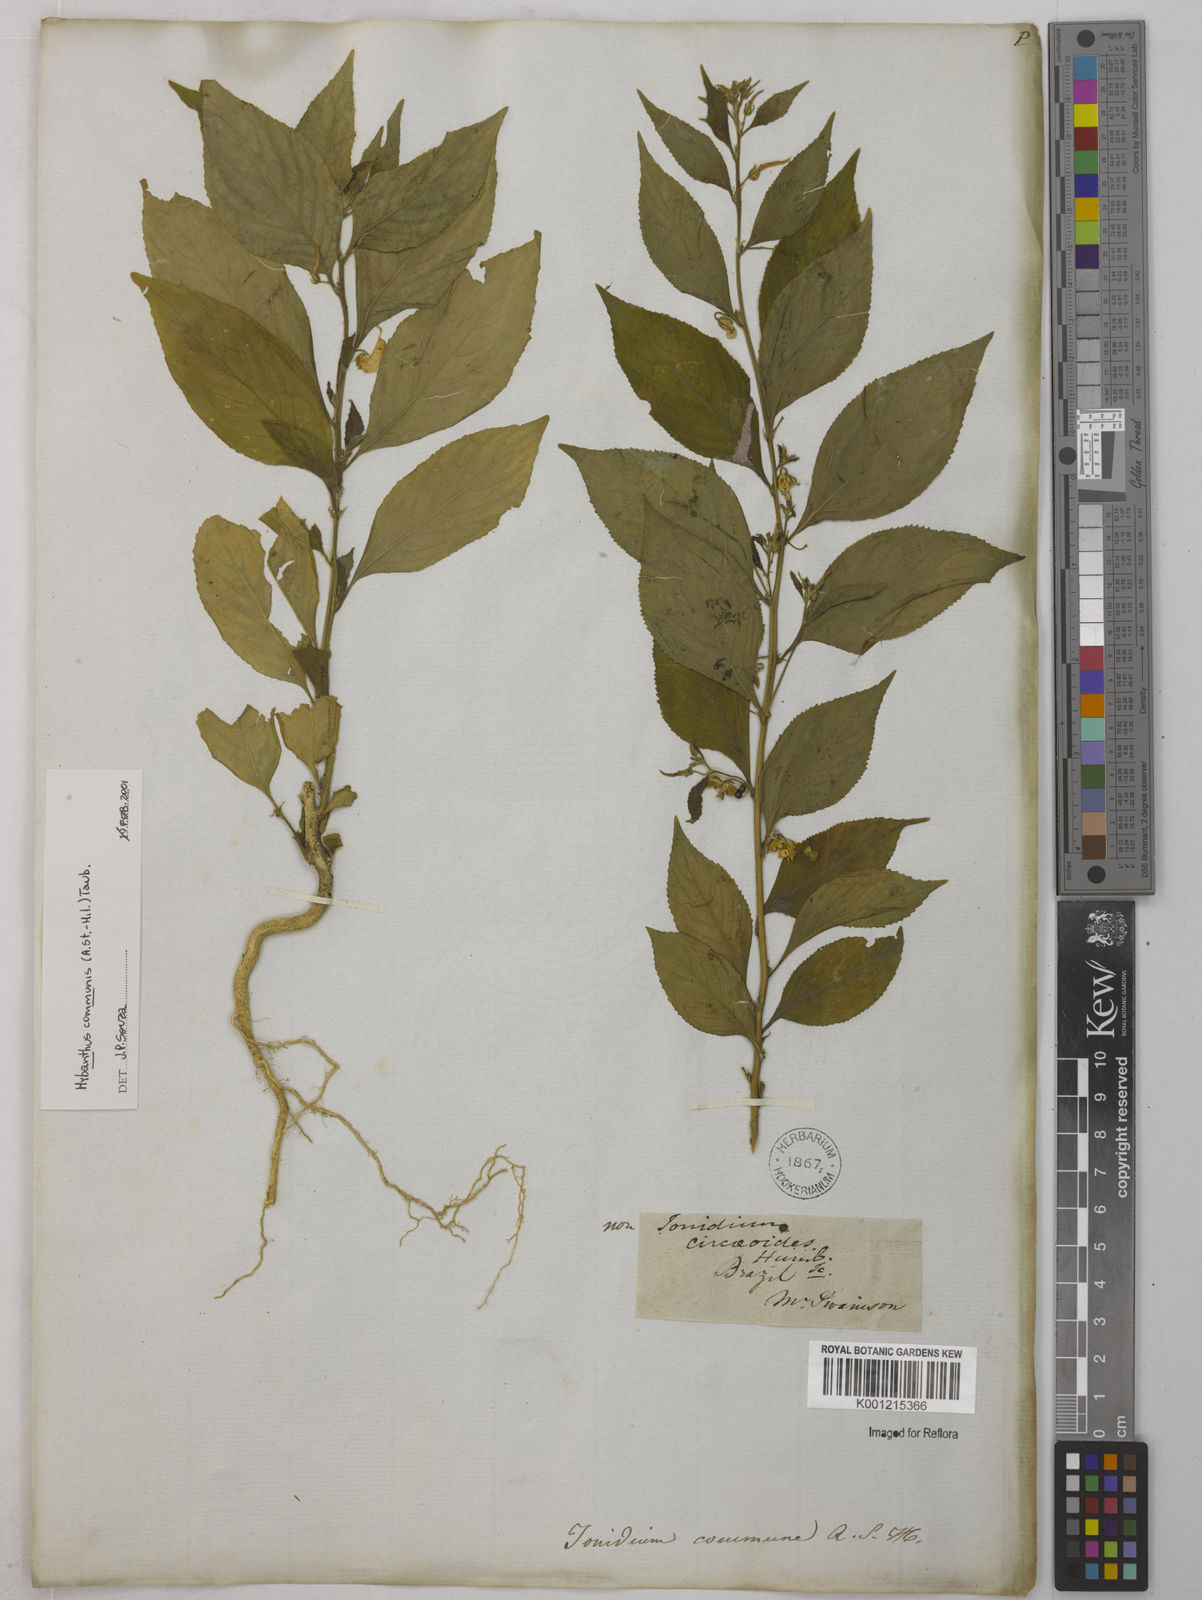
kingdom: Plantae
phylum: Tracheophyta
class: Magnoliopsida
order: Malpighiales
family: Violaceae
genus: Pombalia
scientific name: Pombalia communis
